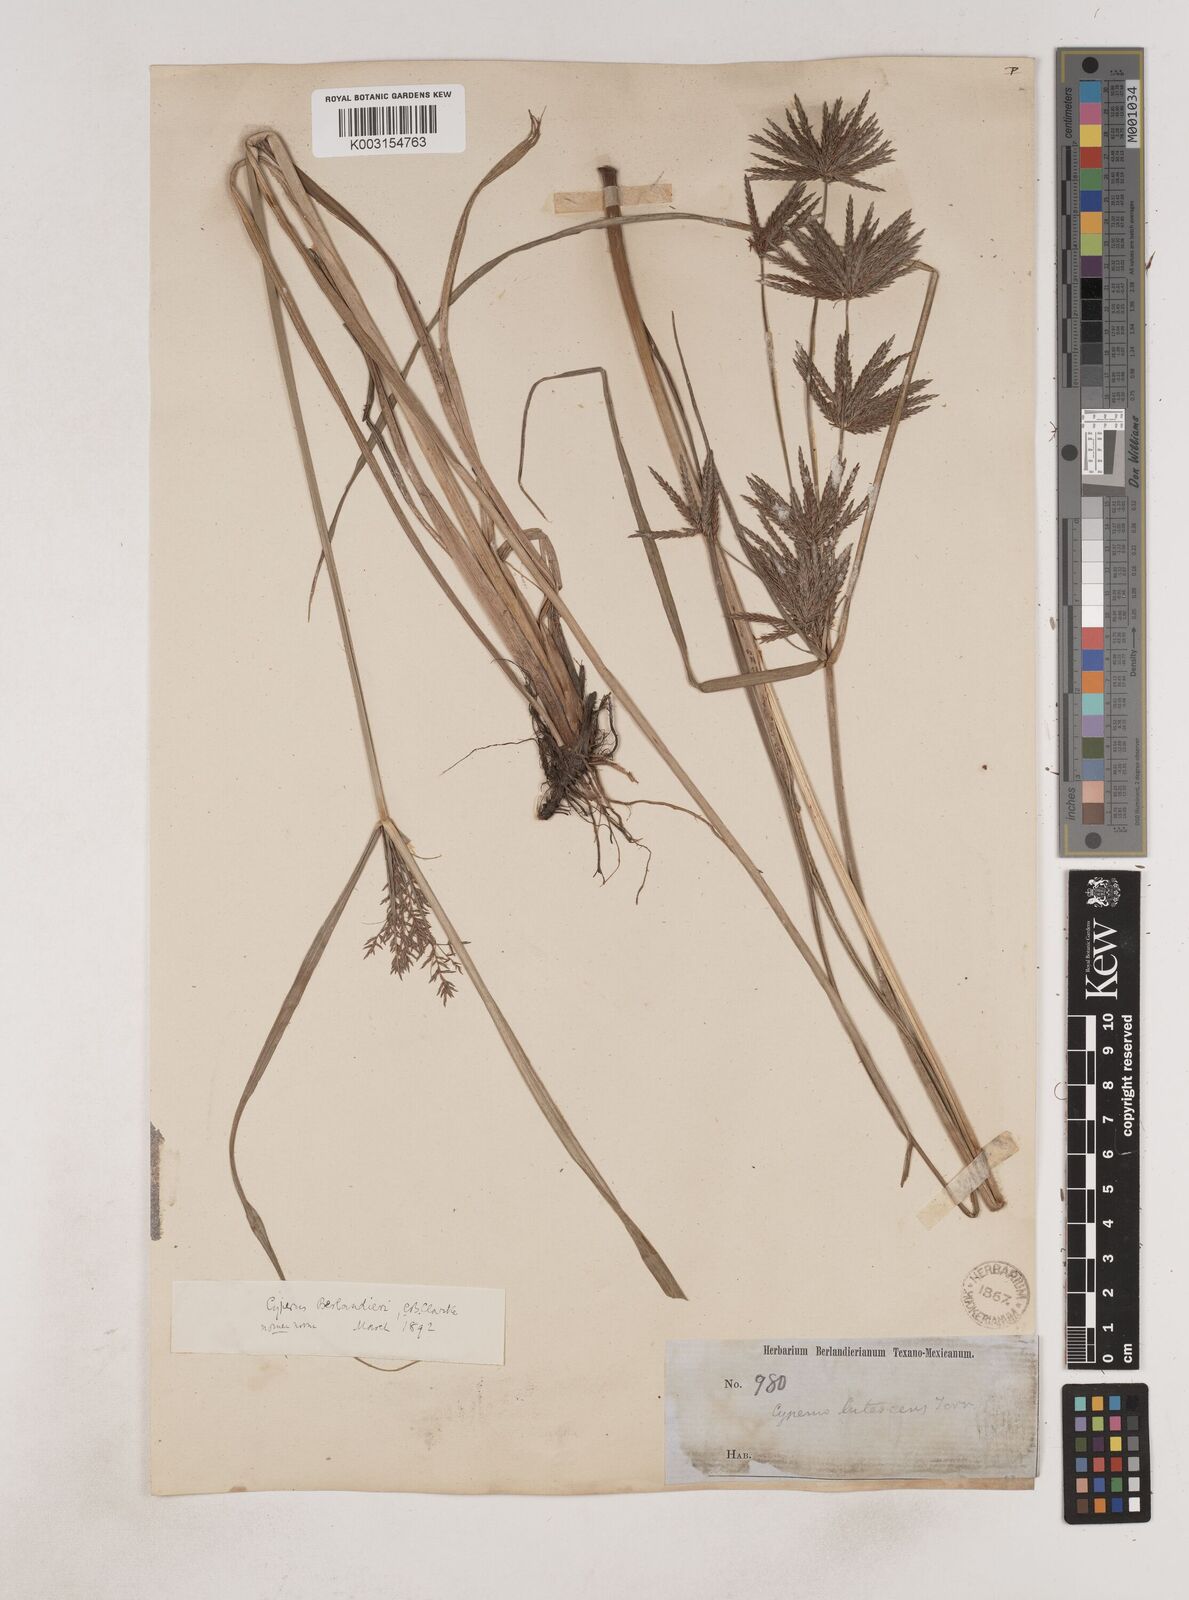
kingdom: Plantae
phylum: Tracheophyta
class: Liliopsida
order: Poales
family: Cyperaceae
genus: Cyperus
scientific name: Cyperus setigerus
